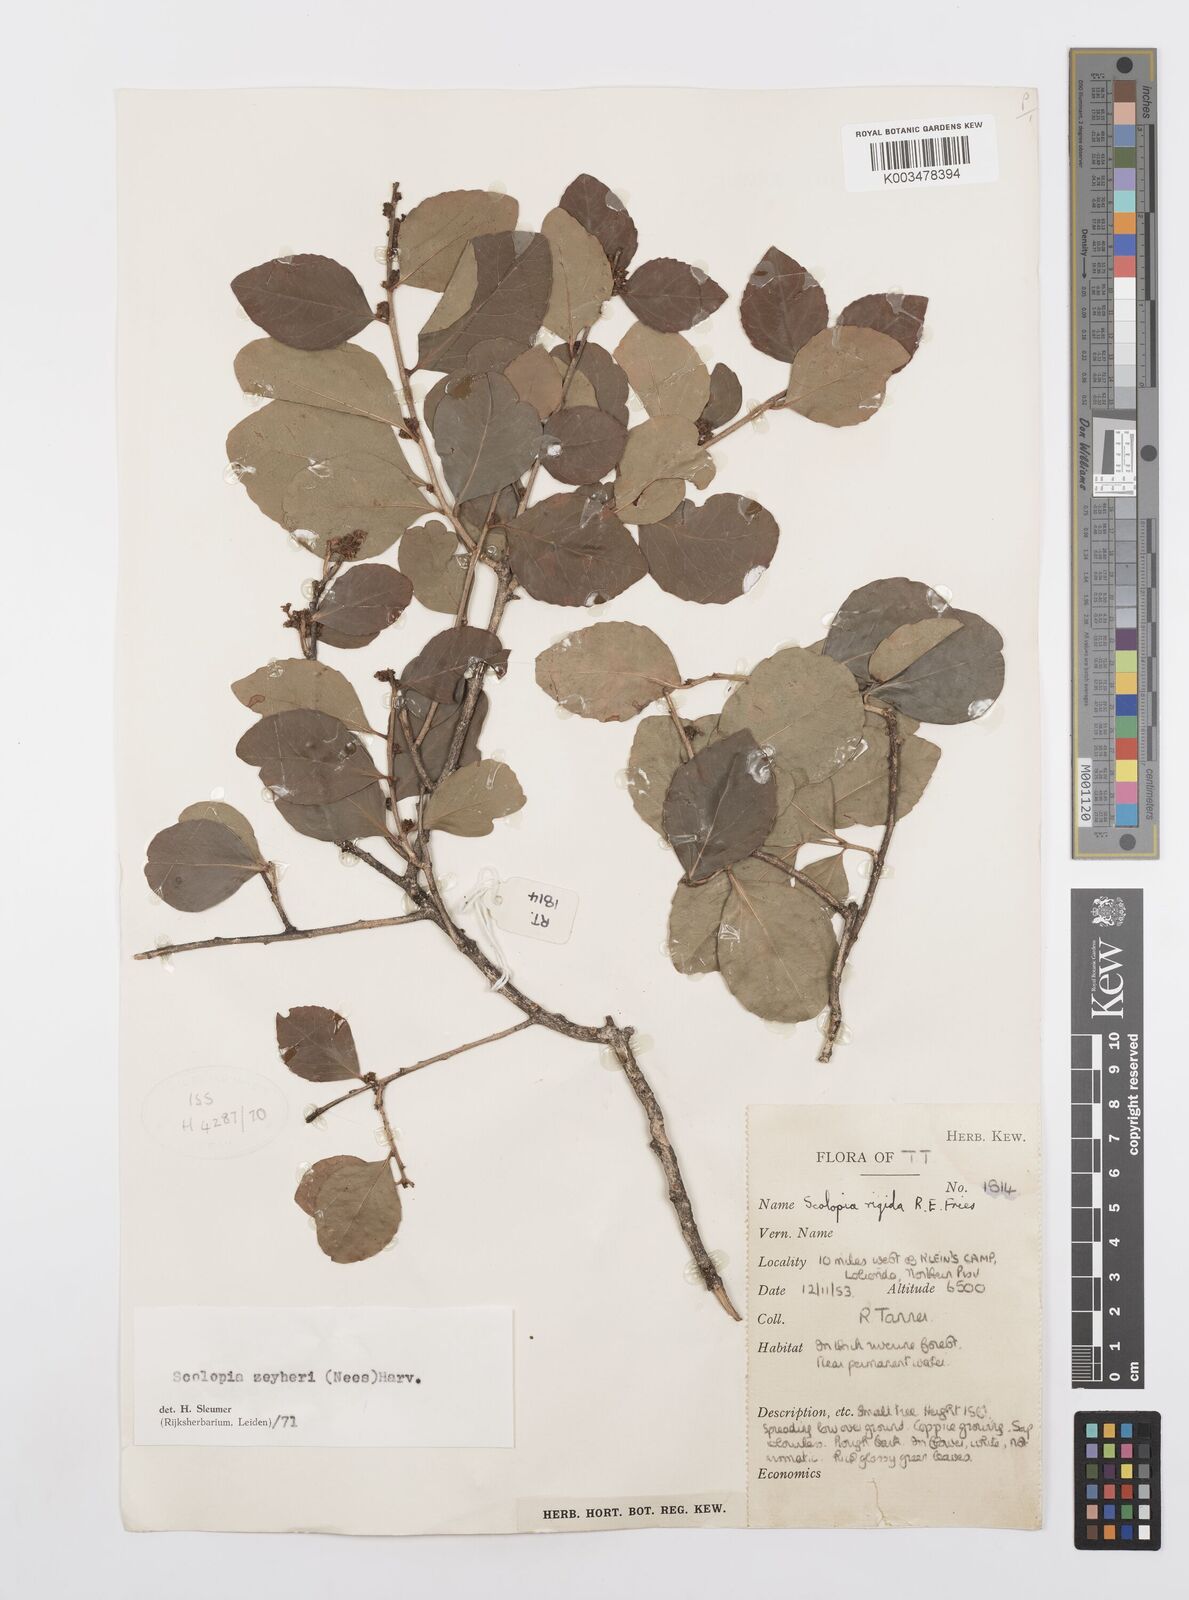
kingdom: Plantae
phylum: Tracheophyta
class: Magnoliopsida
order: Malpighiales
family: Salicaceae
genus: Scolopia
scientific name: Scolopia zeyheri
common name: Thorn pear
